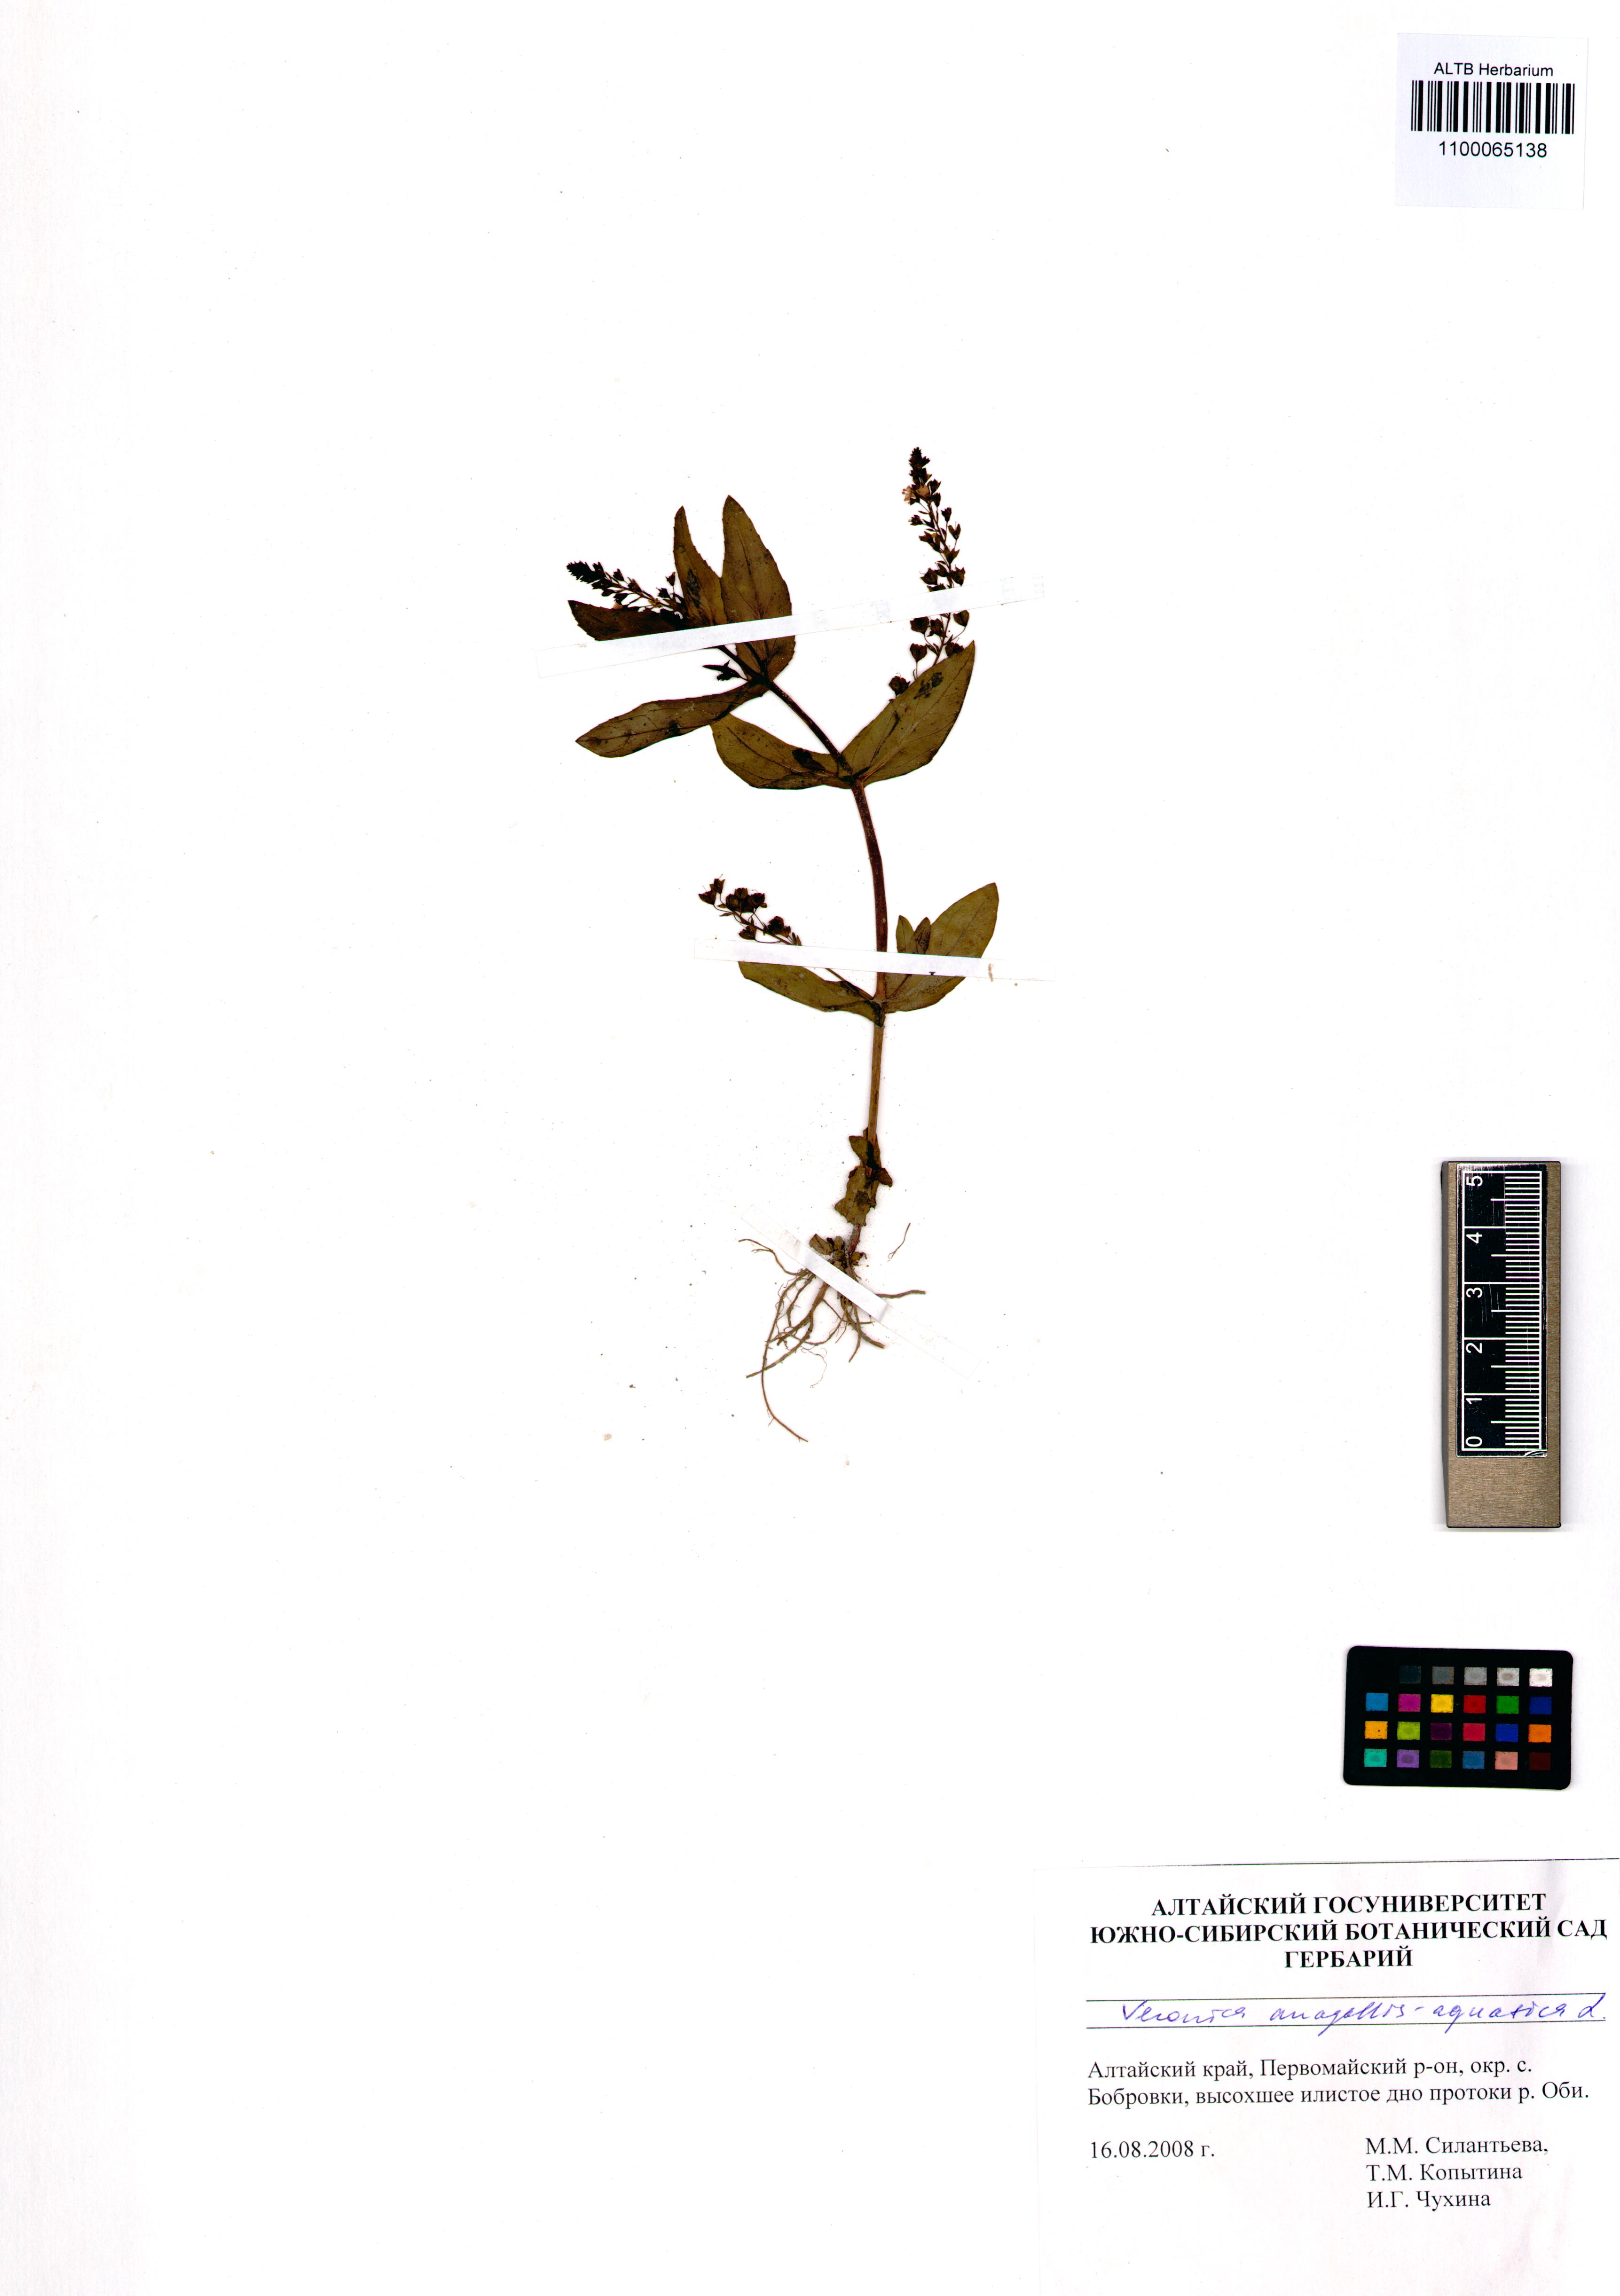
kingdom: Plantae
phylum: Tracheophyta
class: Magnoliopsida
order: Lamiales
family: Plantaginaceae
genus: Veronica
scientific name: Veronica anagallis-aquatica
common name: Water speedwell
